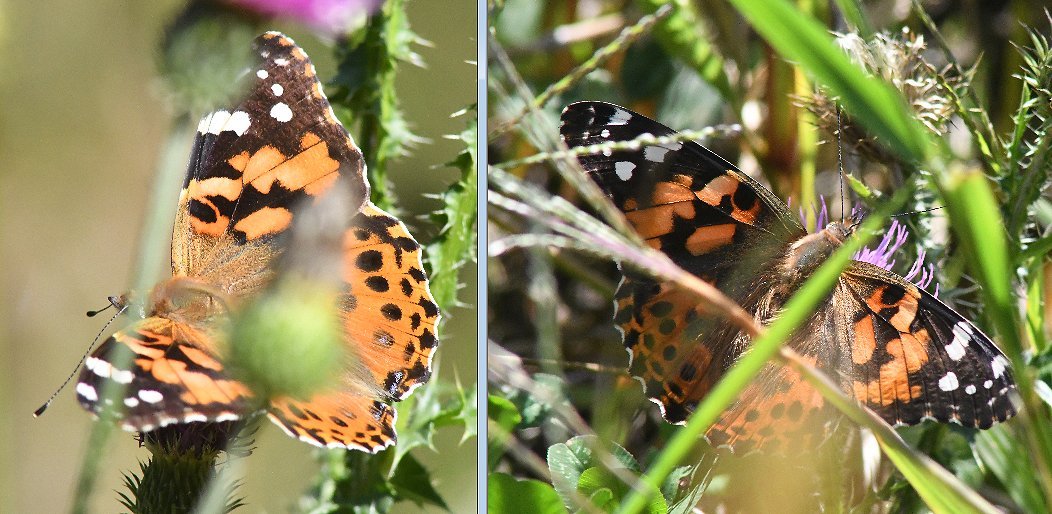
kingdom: Animalia
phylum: Arthropoda
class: Insecta
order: Lepidoptera
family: Nymphalidae
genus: Vanessa
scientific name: Vanessa cardui
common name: Painted Lady
